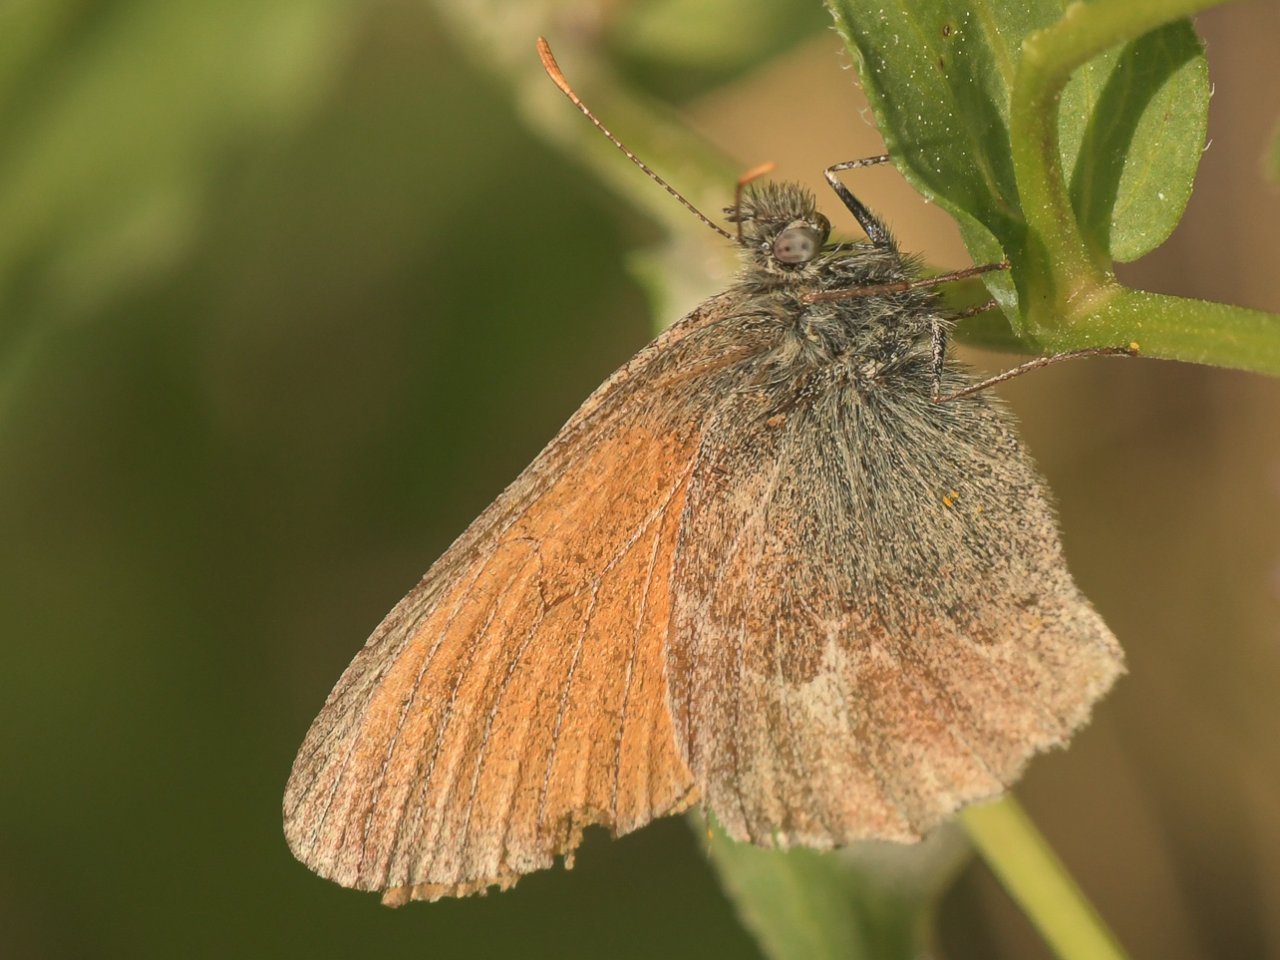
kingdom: Animalia
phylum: Arthropoda
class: Insecta
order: Lepidoptera
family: Nymphalidae
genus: Coenonympha
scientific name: Coenonympha tullia
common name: Large Heath
